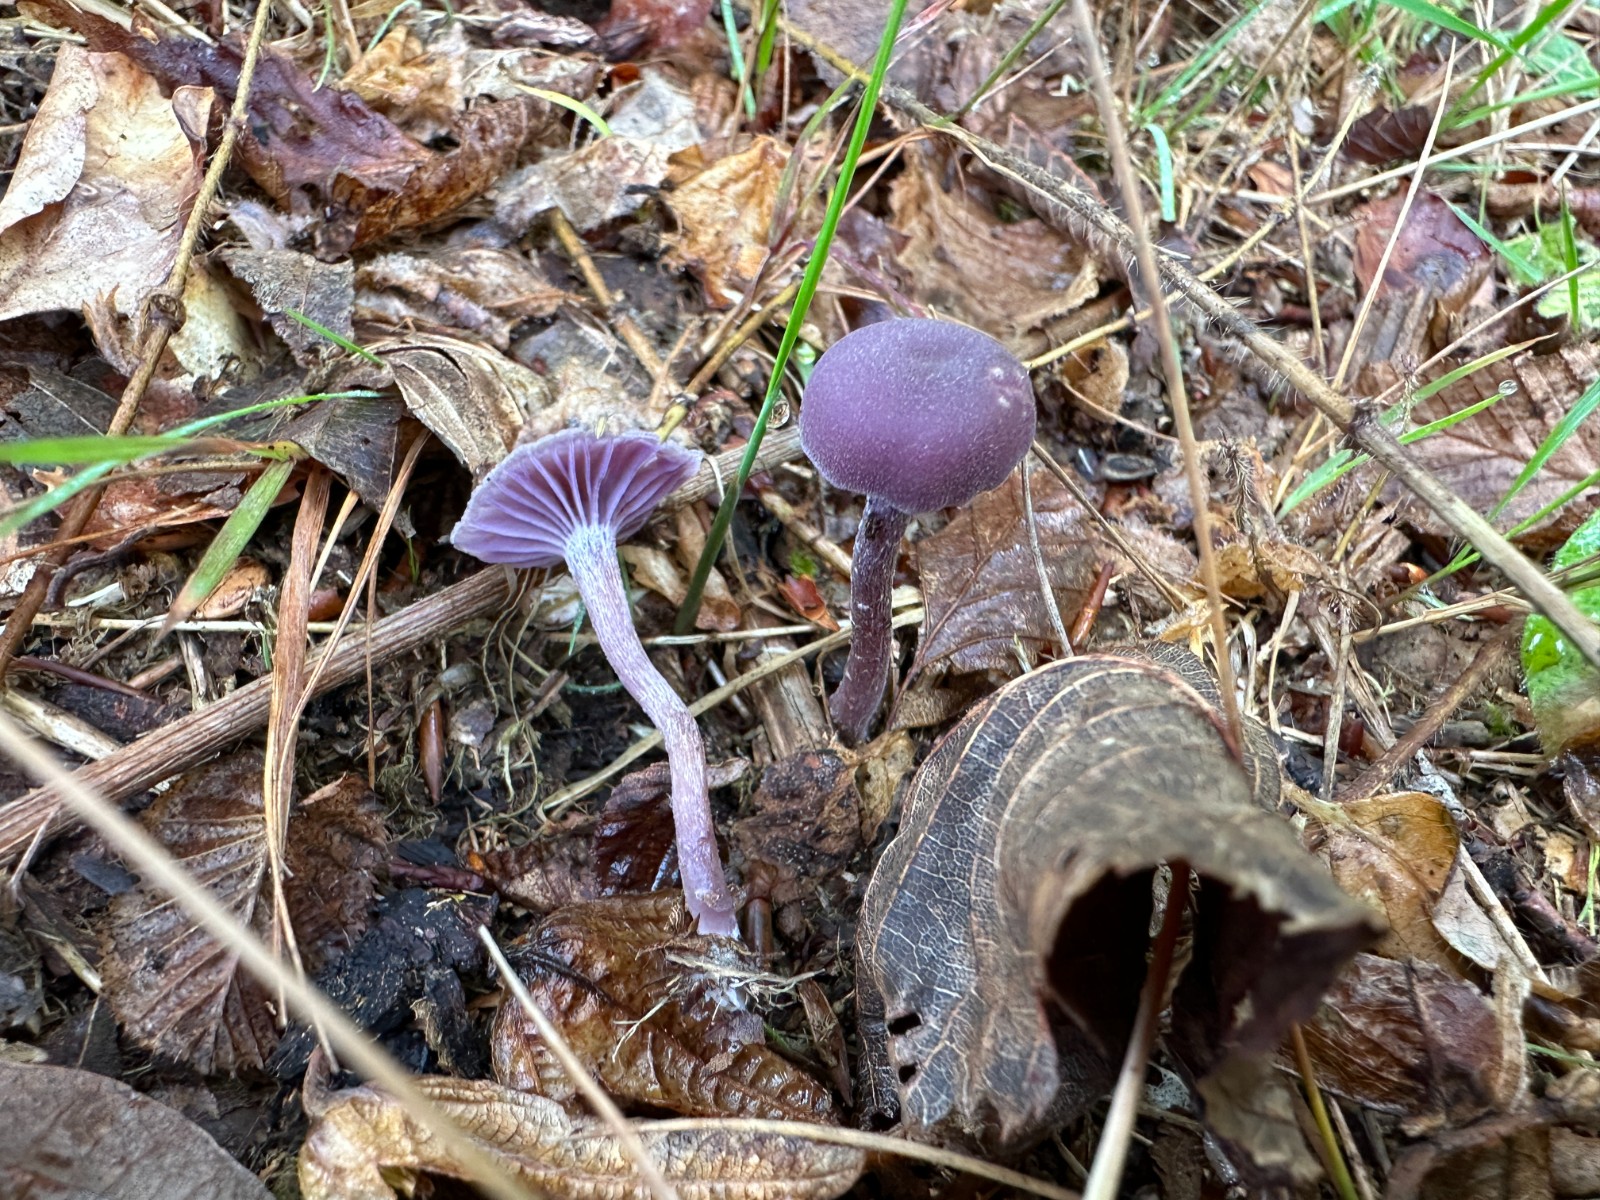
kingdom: Fungi
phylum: Basidiomycota
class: Agaricomycetes
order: Agaricales
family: Hydnangiaceae
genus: Laccaria
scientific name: Laccaria amethystina
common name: violet ametysthat
